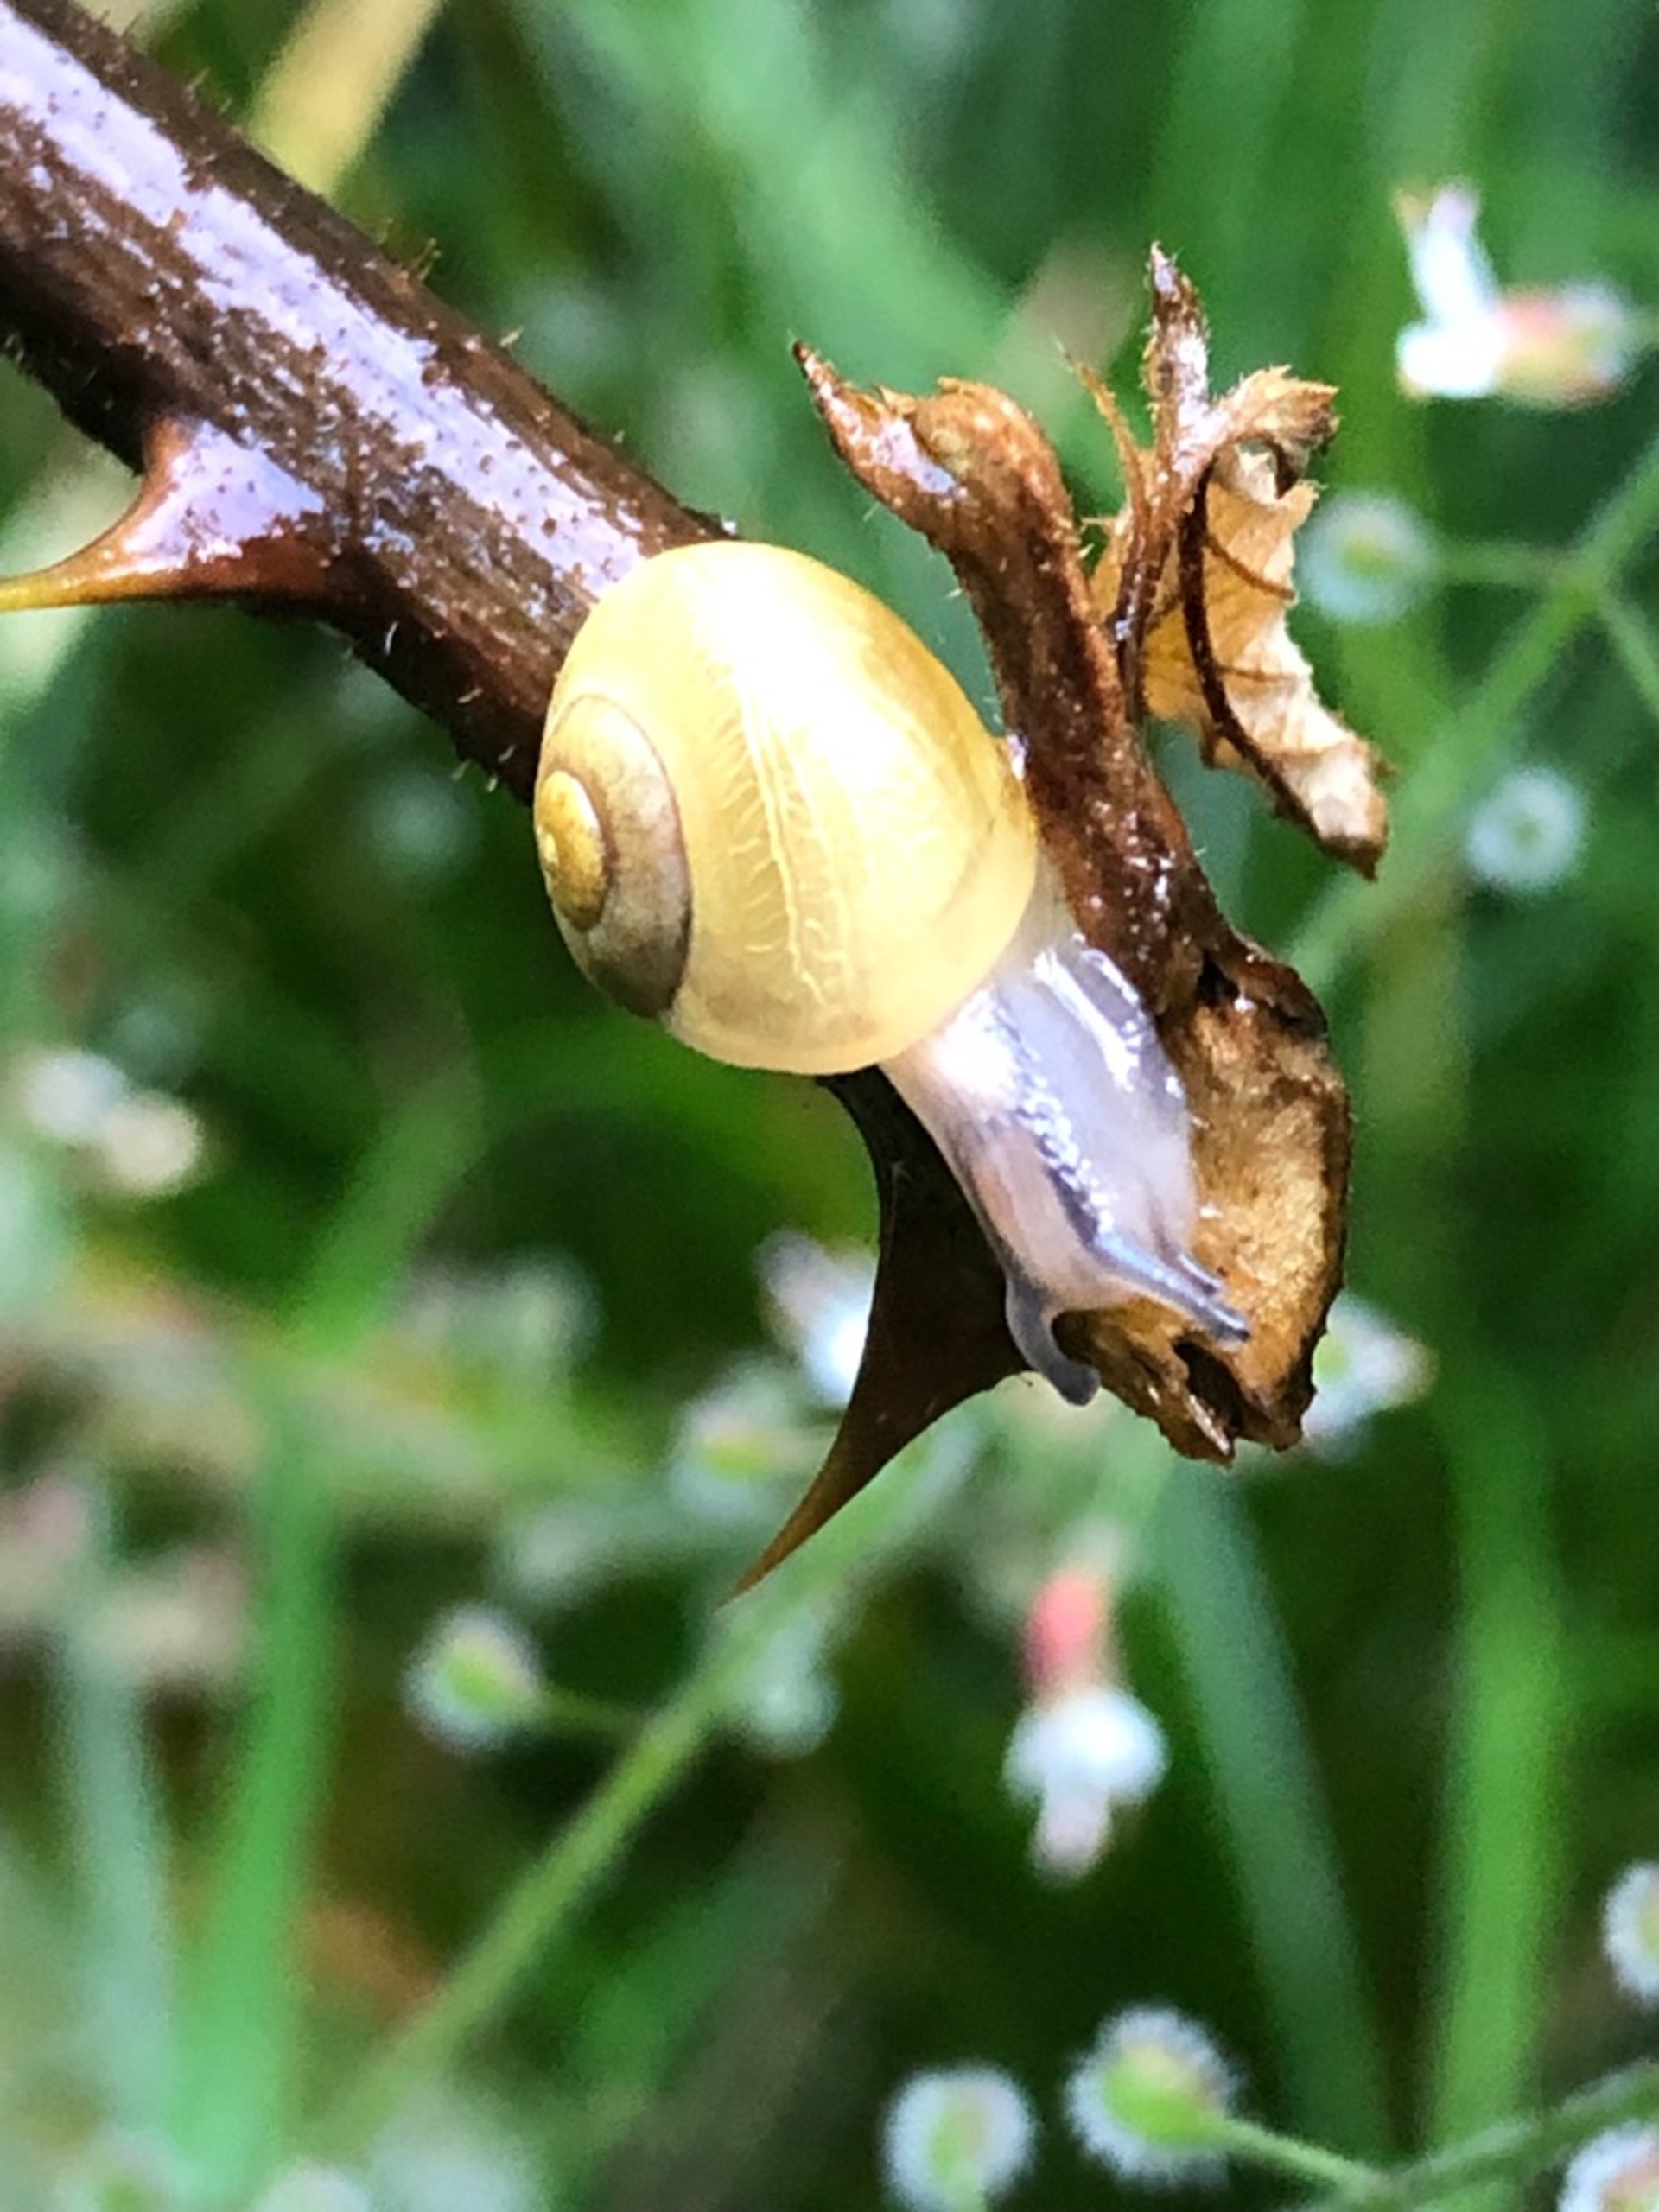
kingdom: Animalia
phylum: Mollusca
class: Gastropoda
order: Stylommatophora
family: Helicidae
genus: Cepaea
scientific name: Cepaea hortensis
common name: Havesnegl
